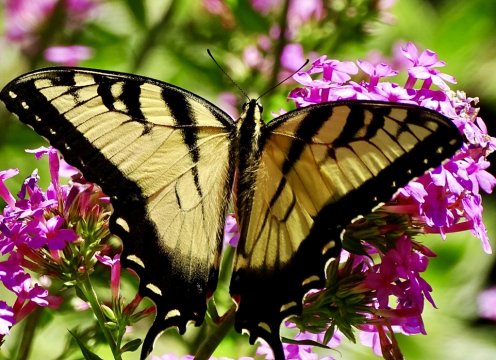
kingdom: Animalia
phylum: Arthropoda
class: Insecta
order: Lepidoptera
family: Papilionidae
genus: Pterourus
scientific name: Pterourus glaucus
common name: Eastern Tiger Swallowtail
